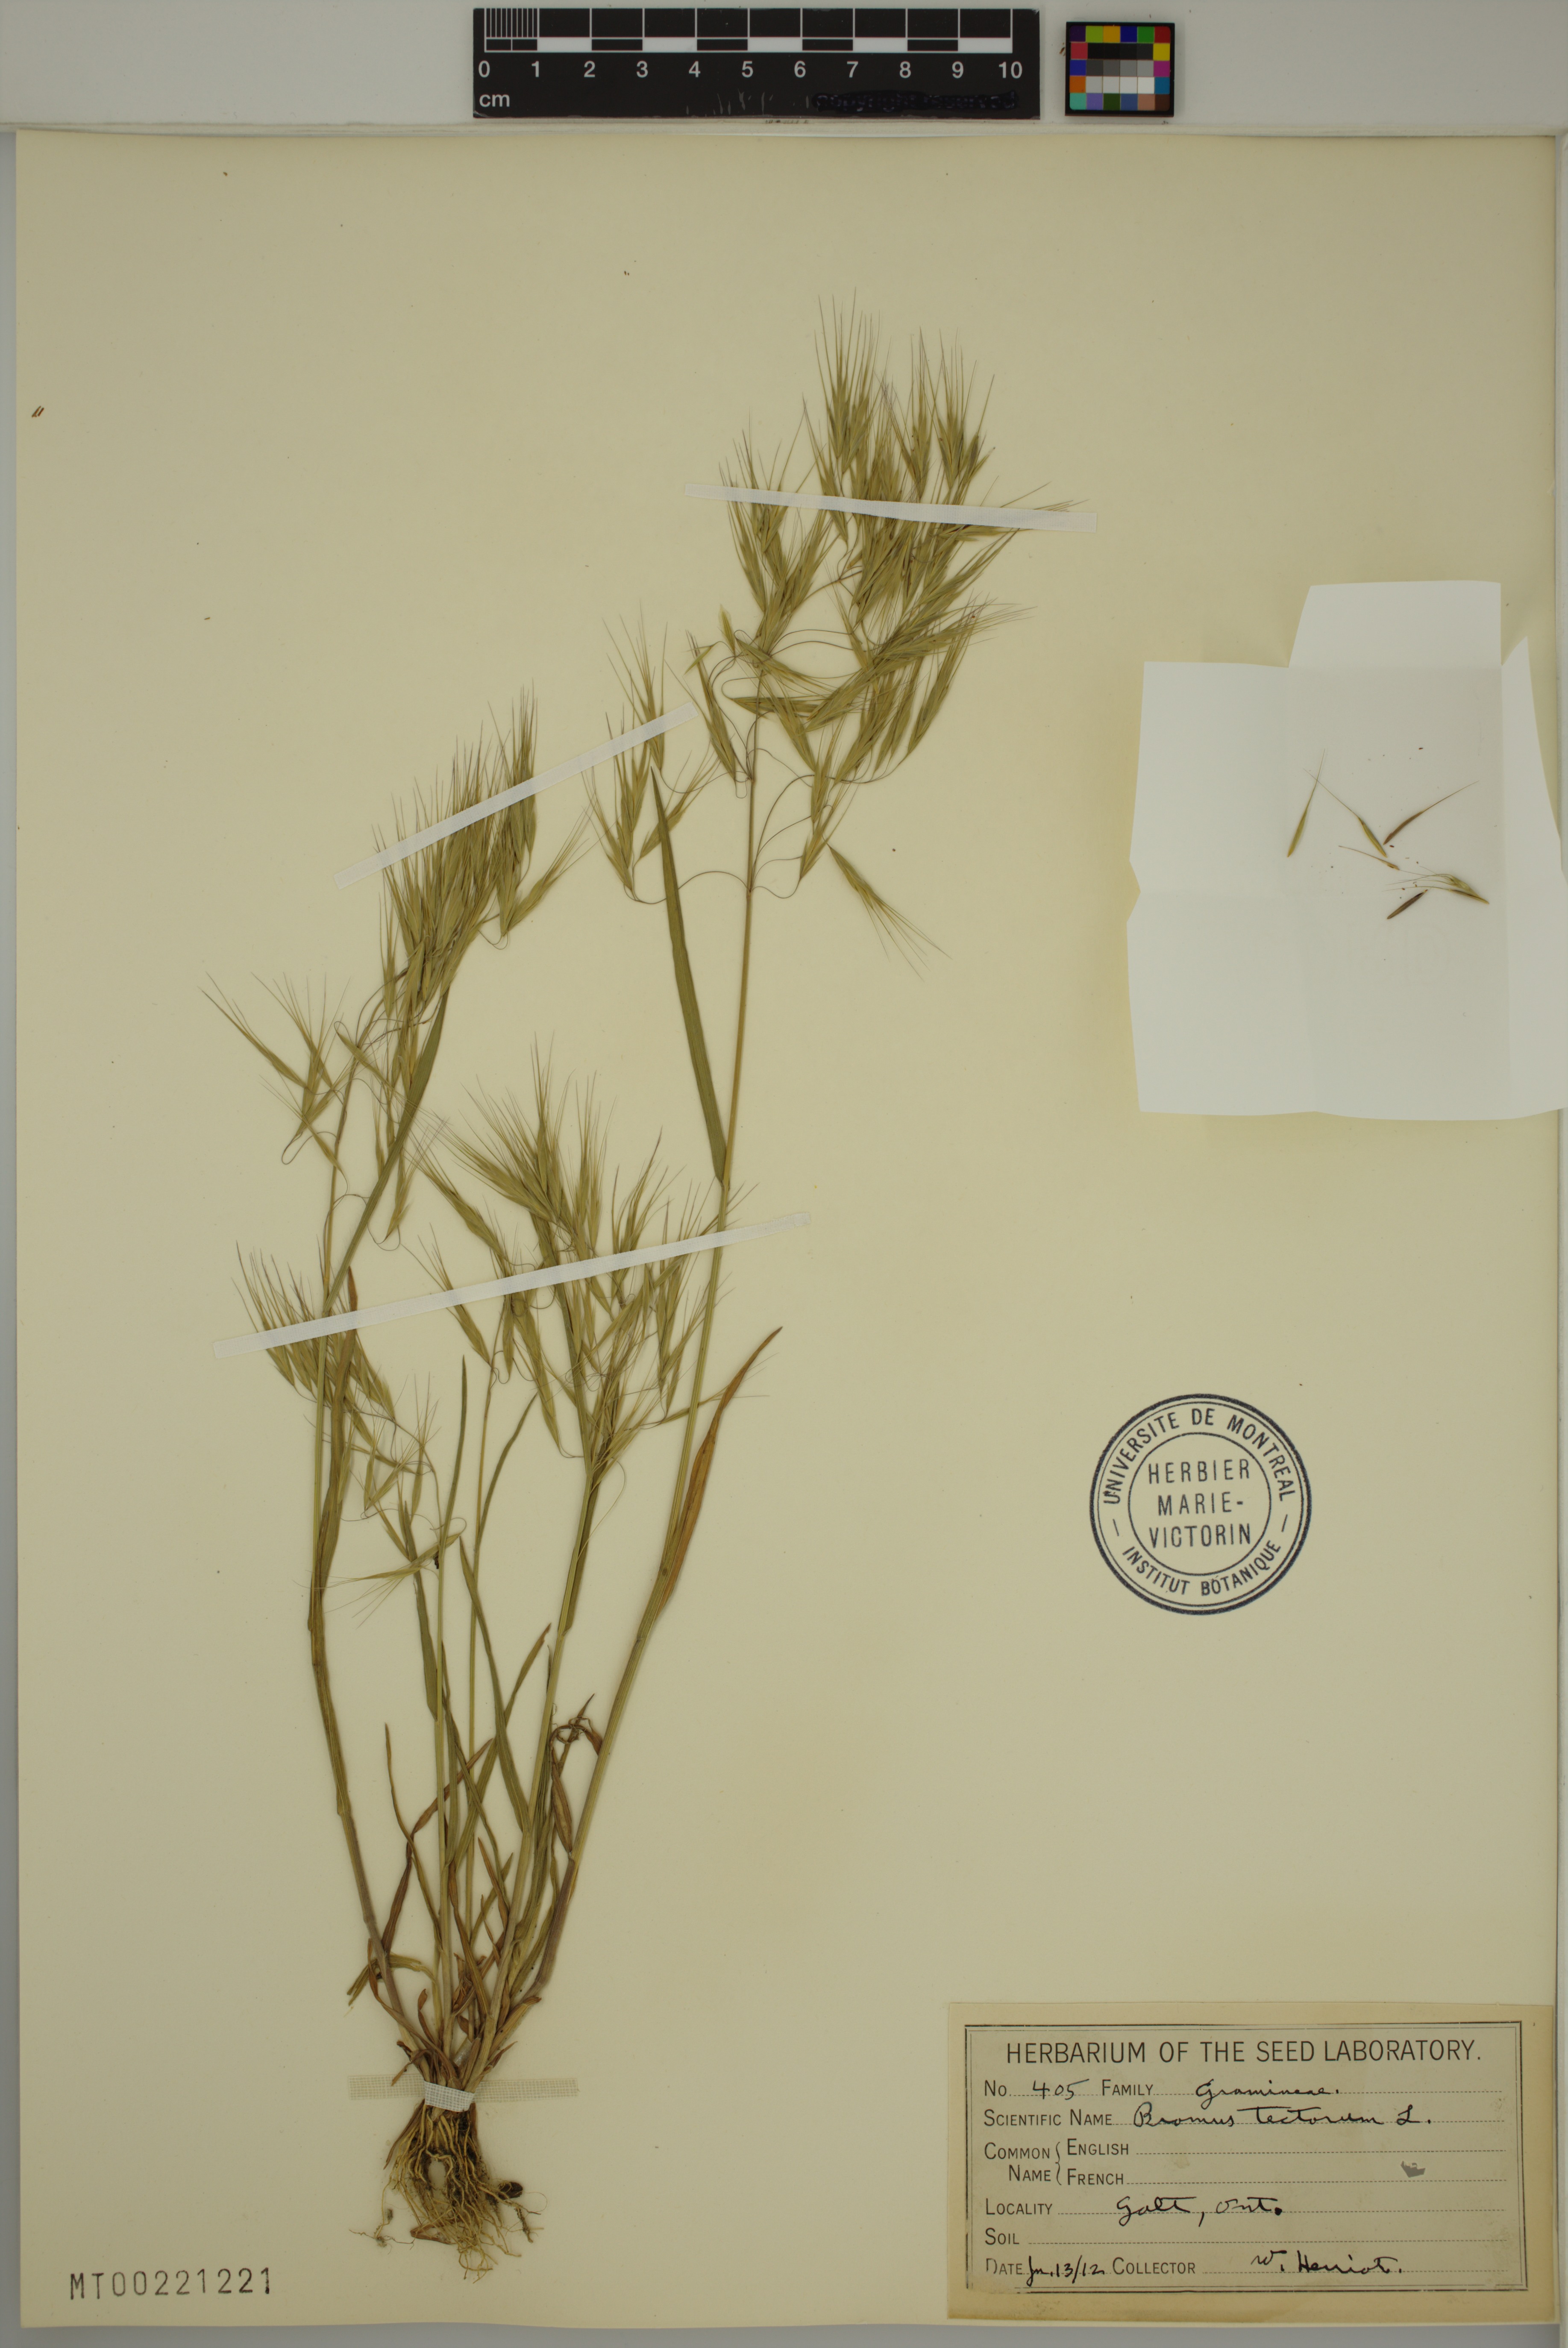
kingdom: Plantae
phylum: Tracheophyta
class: Liliopsida
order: Poales
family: Poaceae
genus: Bromus
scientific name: Bromus tectorum
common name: Cheatgrass
